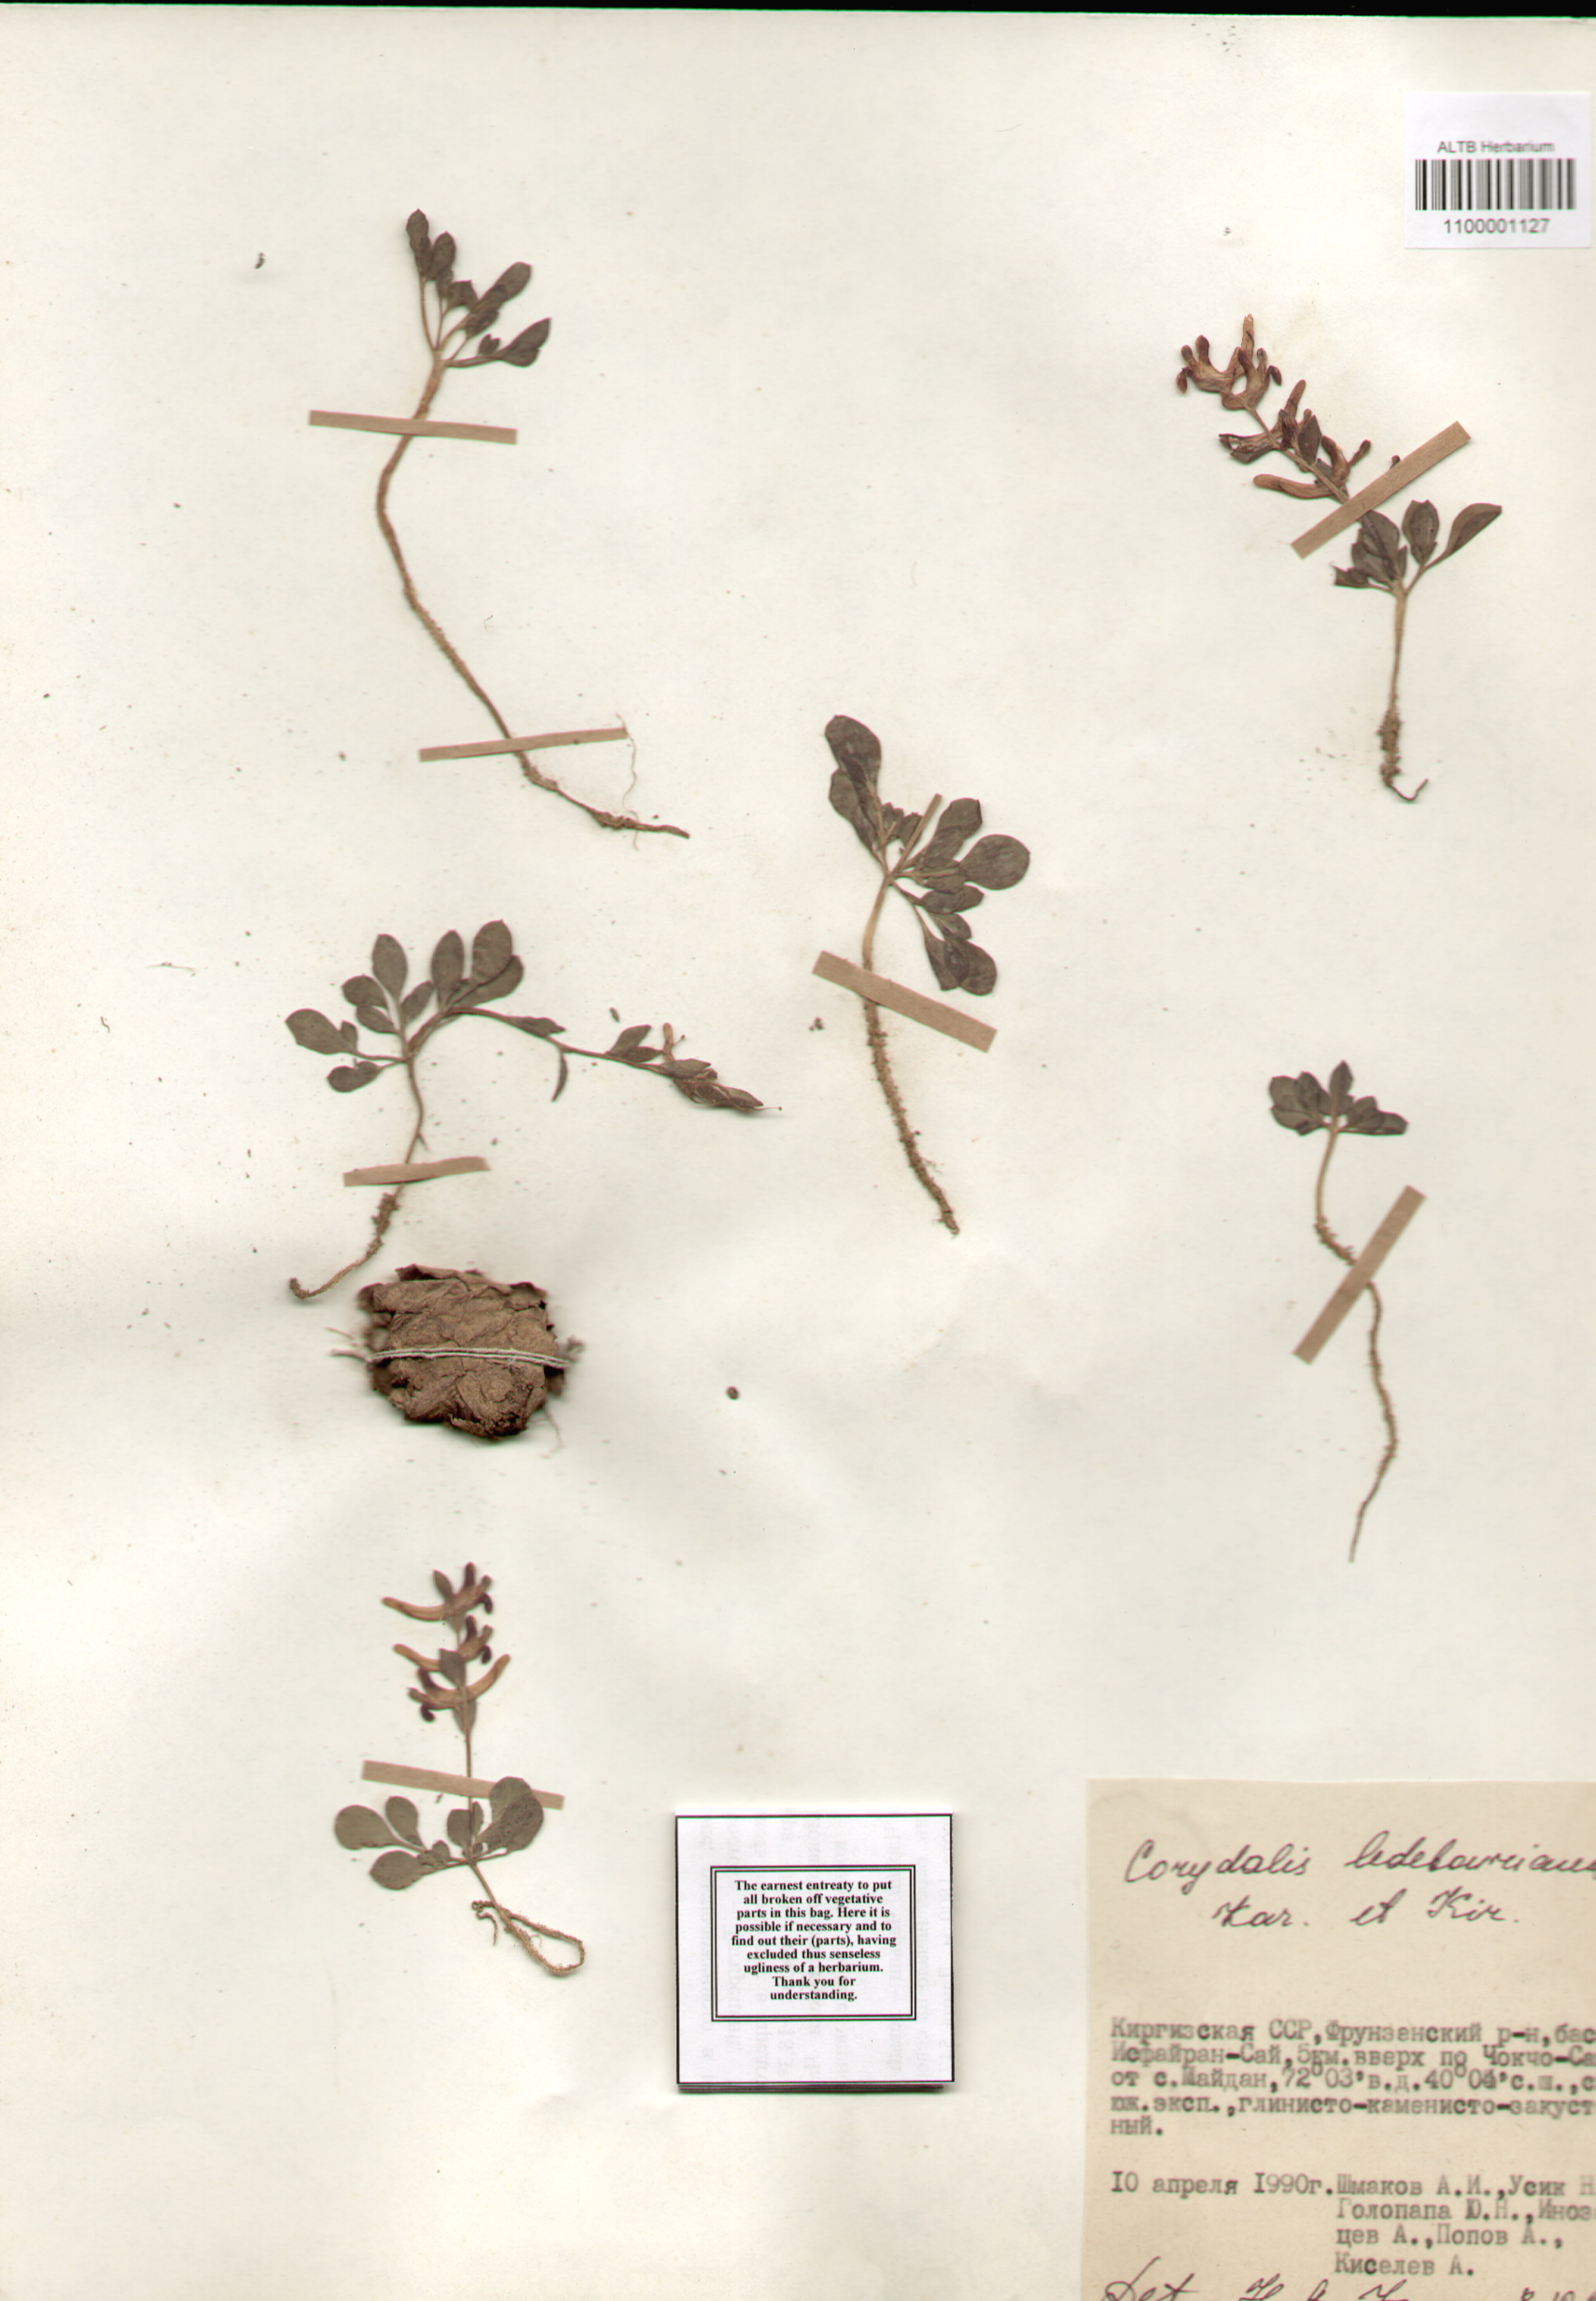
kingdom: Plantae
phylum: Tracheophyta
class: Magnoliopsida
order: Ranunculales
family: Papaveraceae
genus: Corydalis
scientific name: Corydalis ledebouriana
